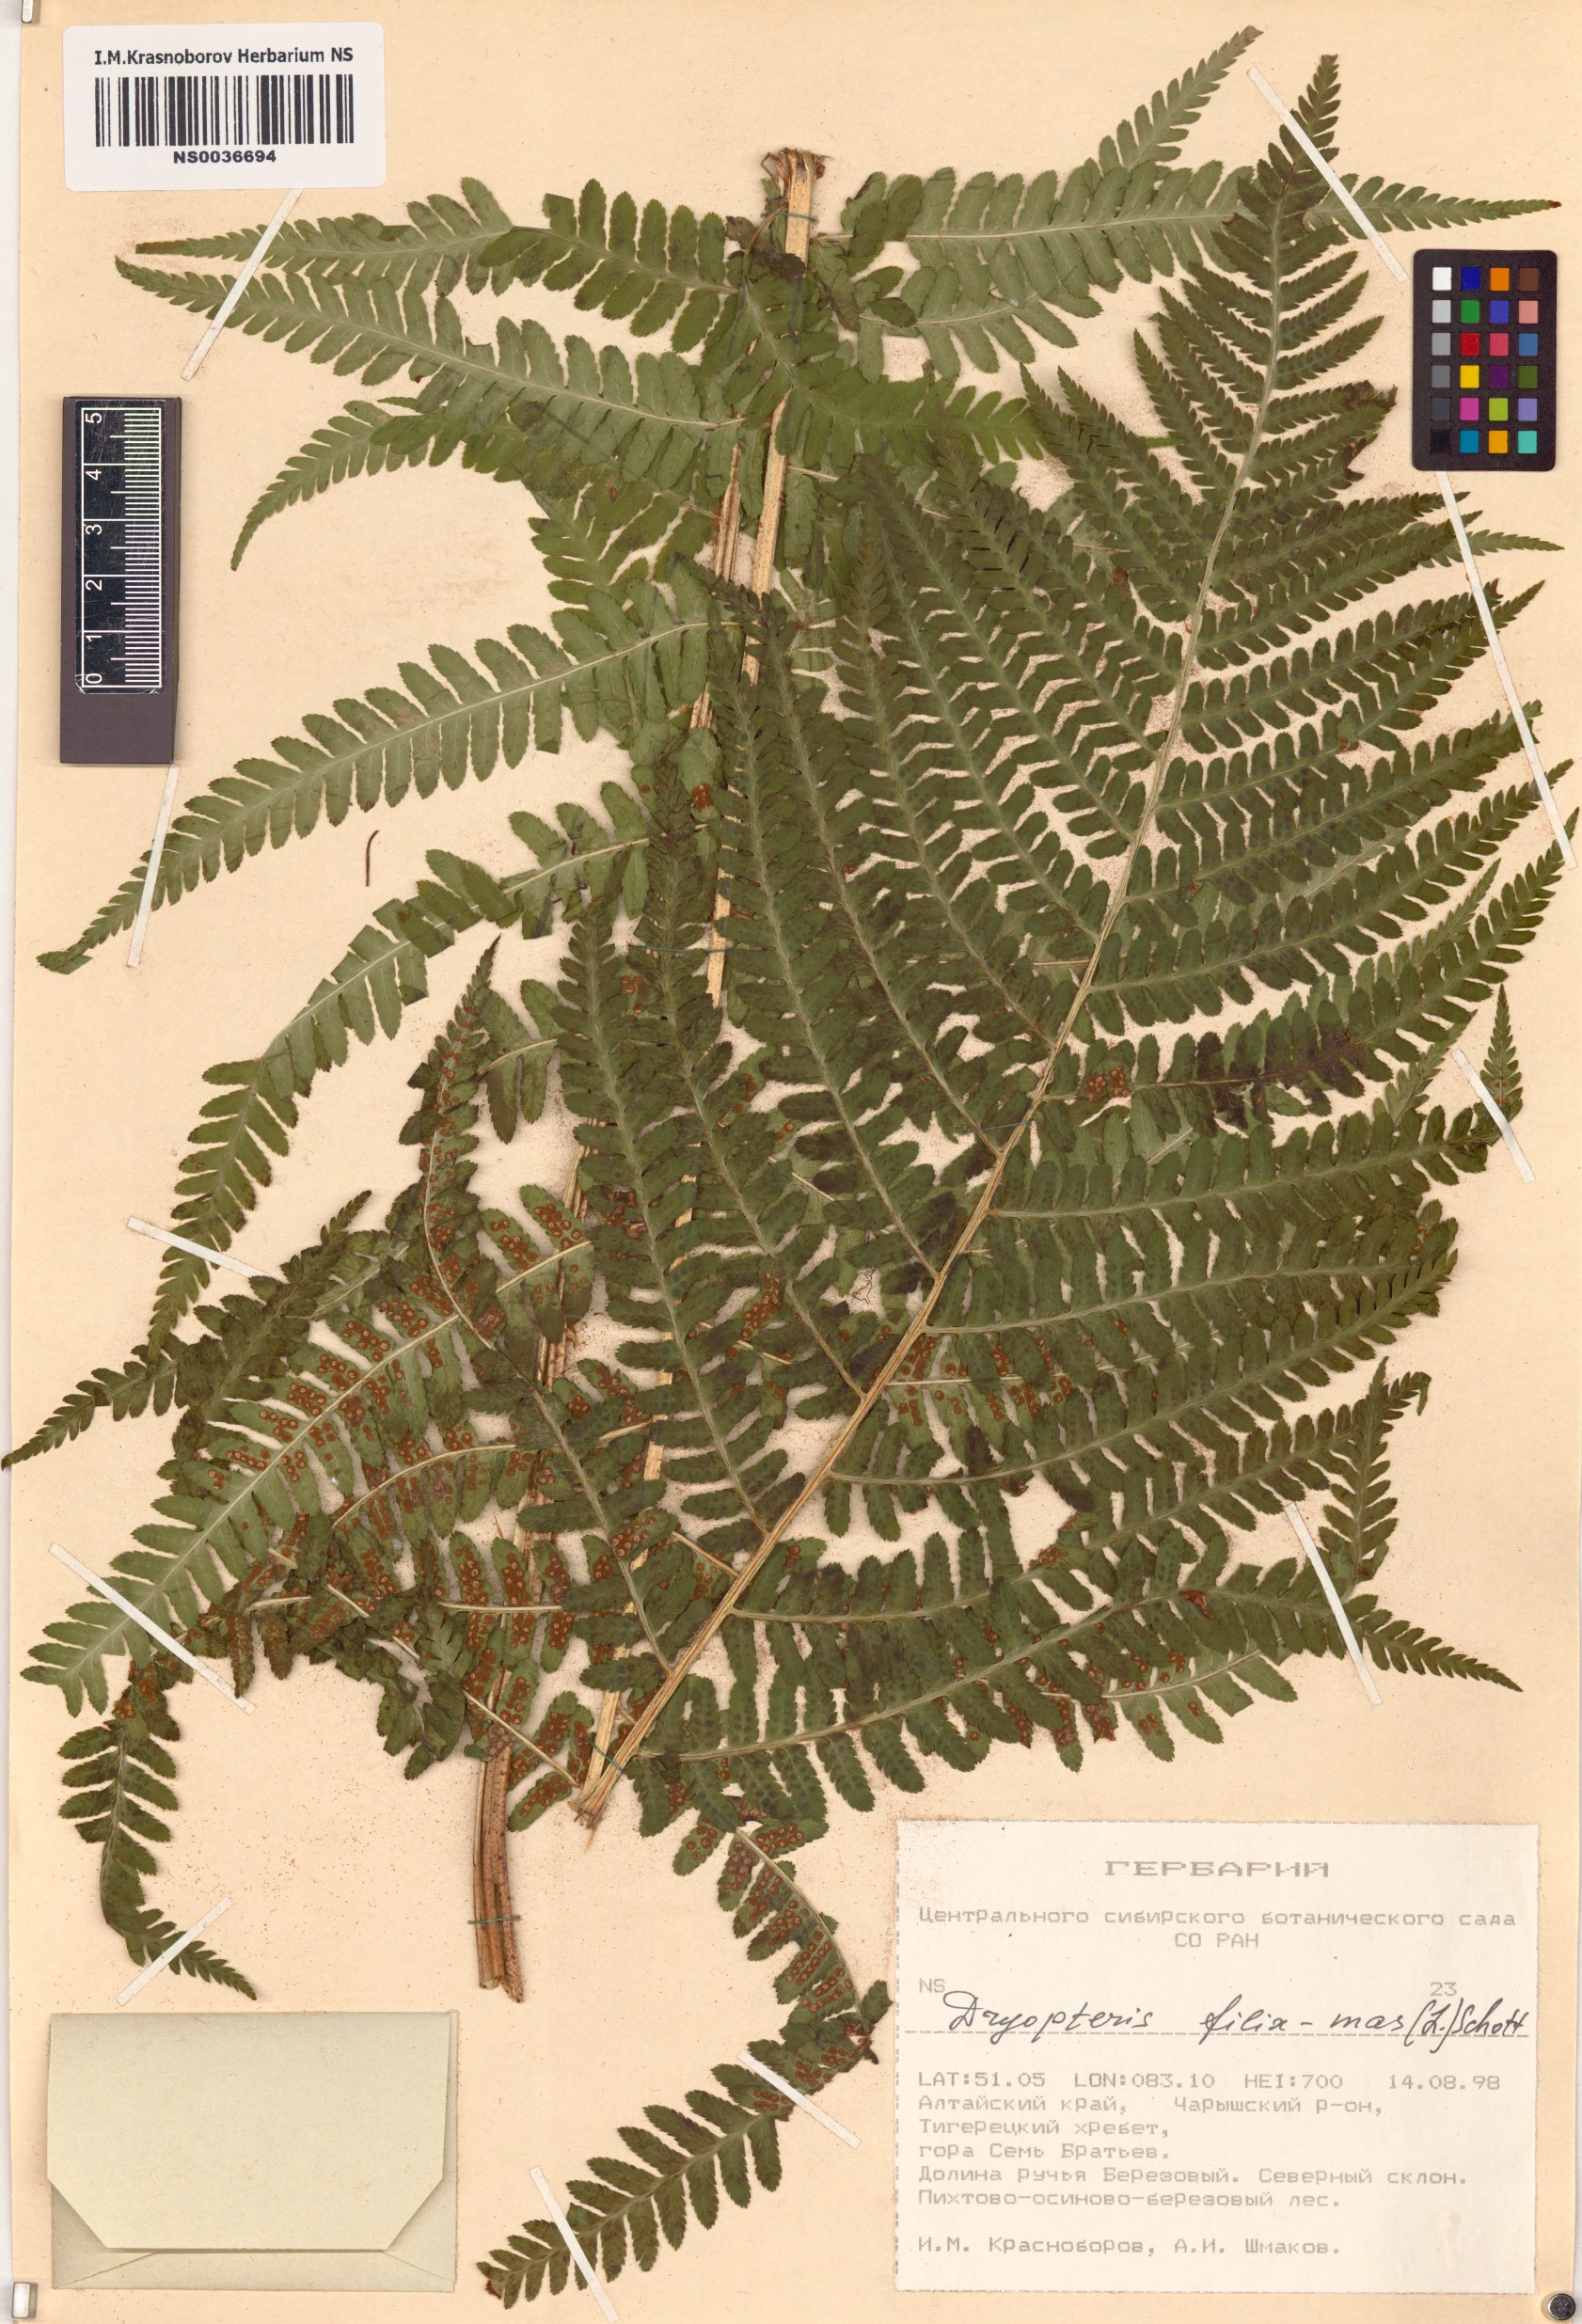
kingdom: Plantae
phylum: Tracheophyta
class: Polypodiopsida
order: Polypodiales
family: Dryopteridaceae
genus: Dryopteris
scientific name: Dryopteris filix-mas
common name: Male fern
